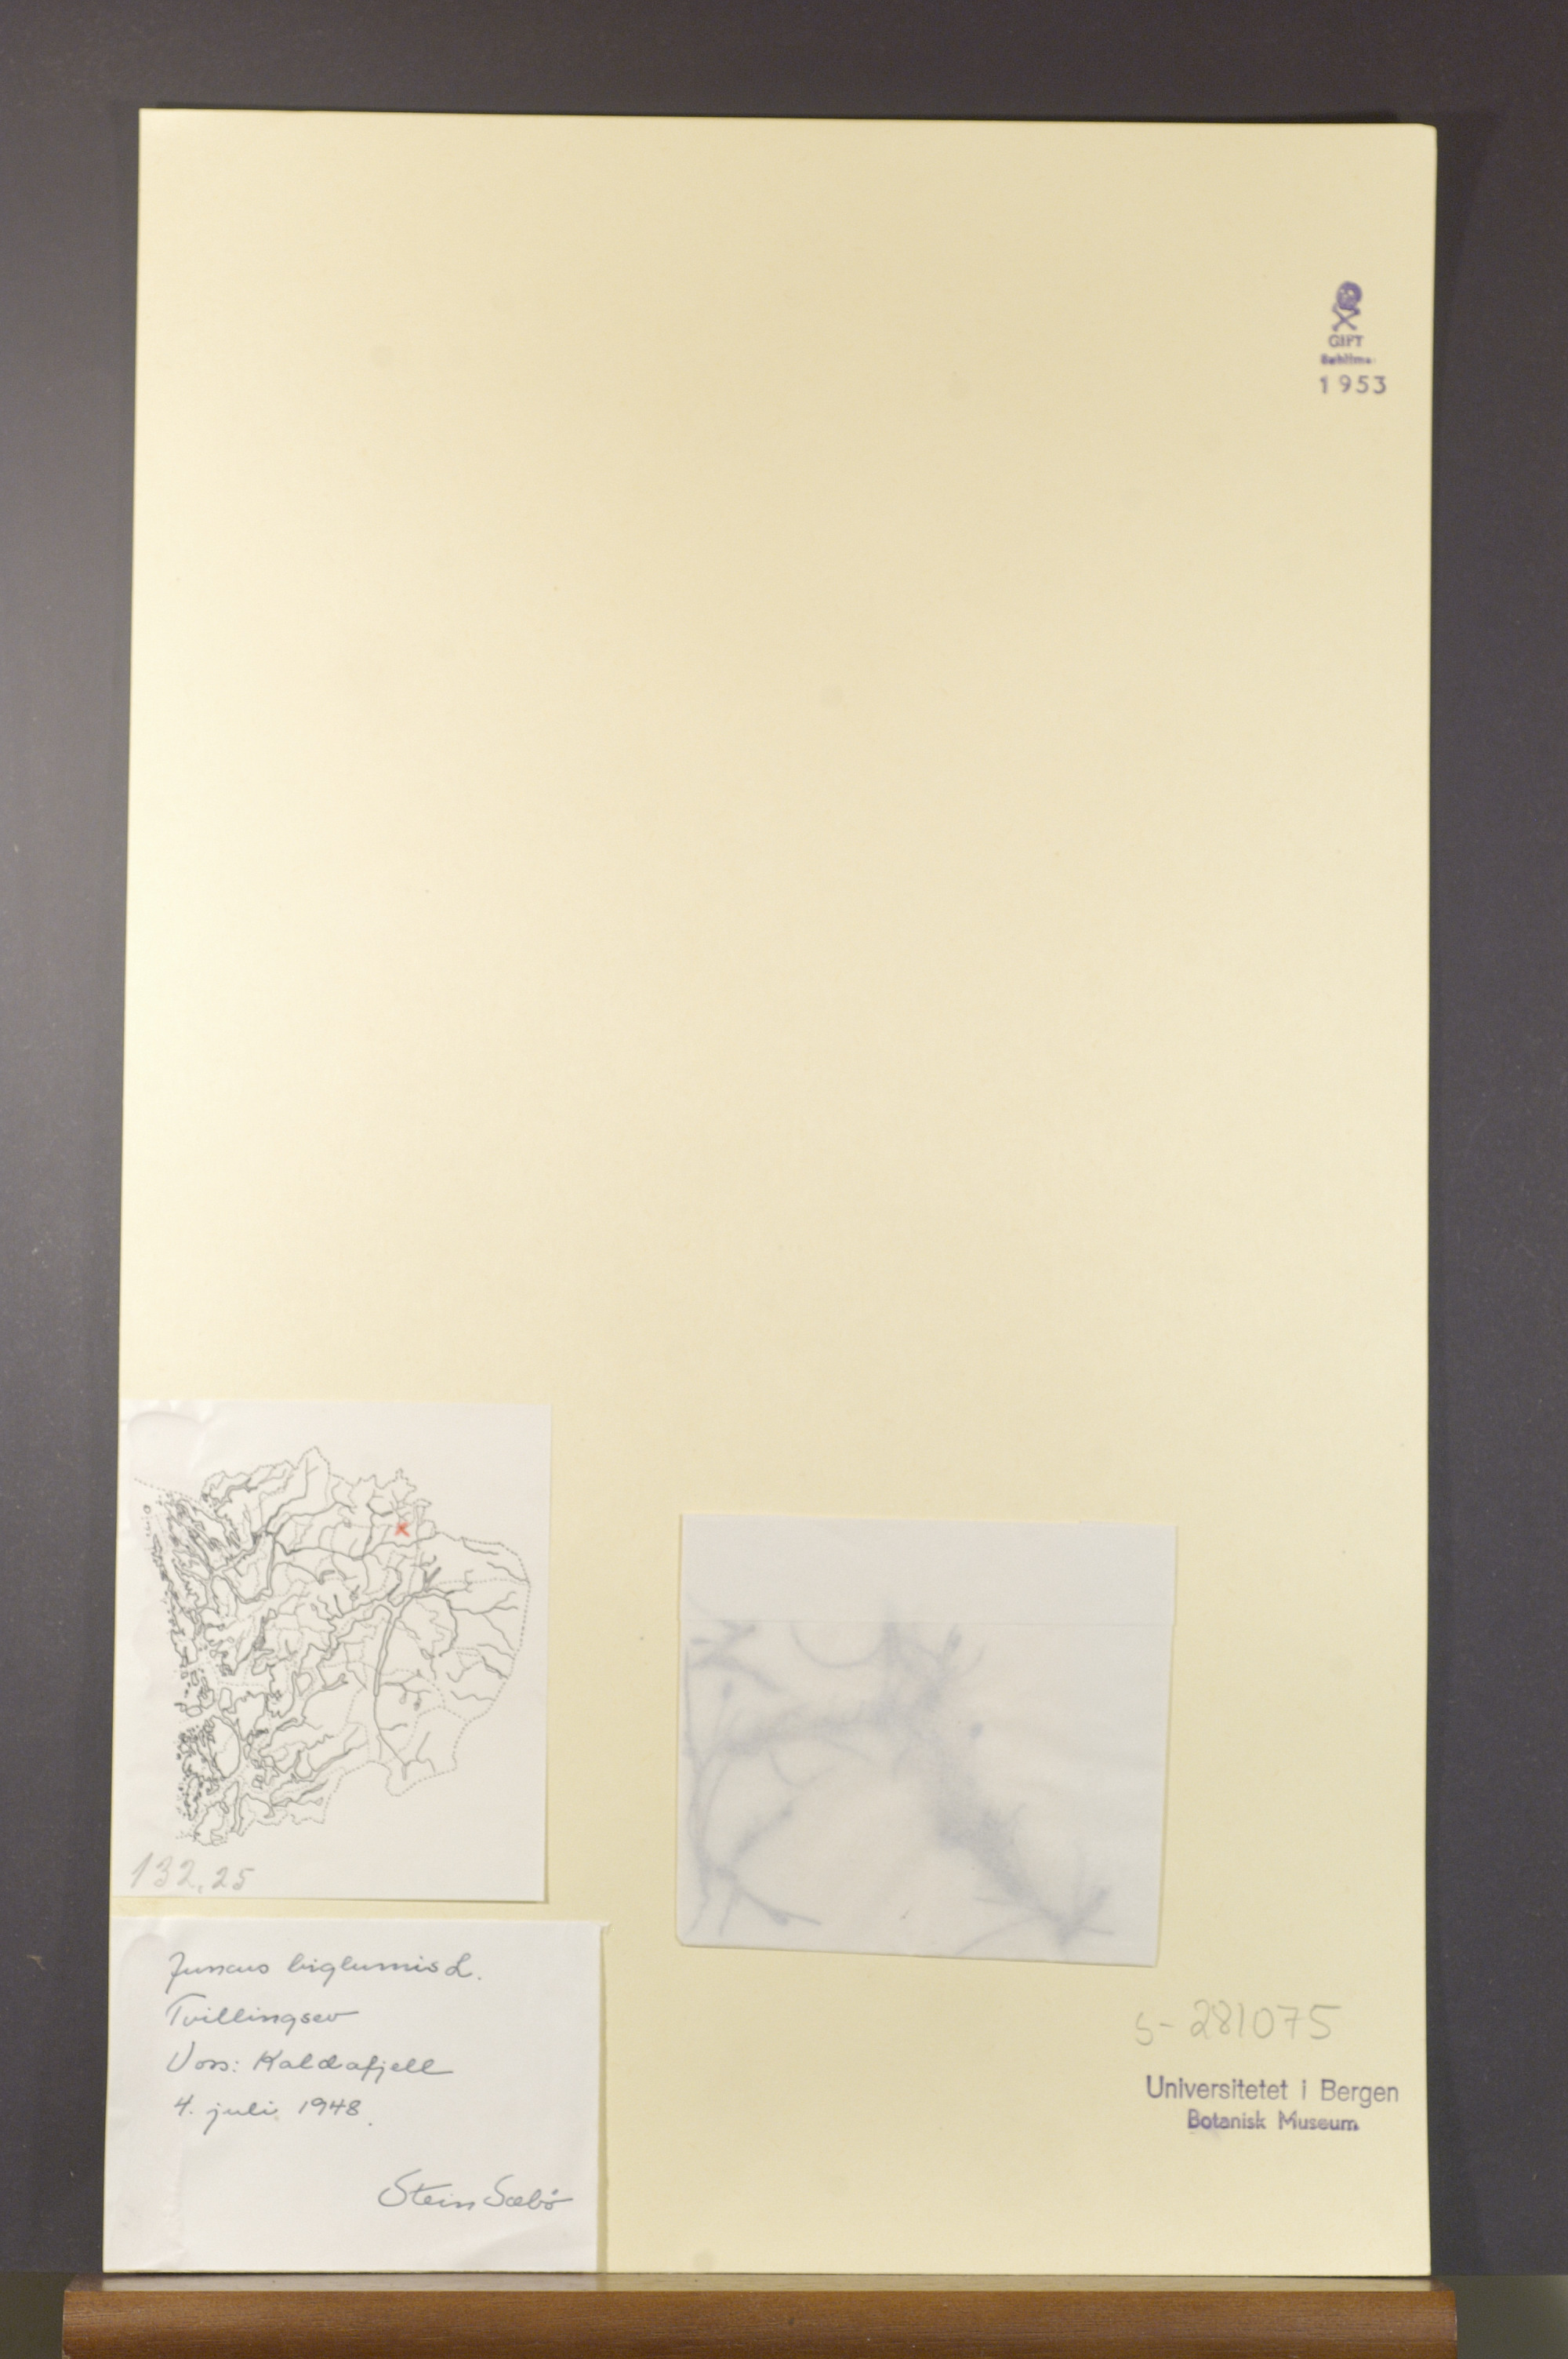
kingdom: Plantae
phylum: Tracheophyta
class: Liliopsida
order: Poales
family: Juncaceae
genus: Juncus
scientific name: Juncus biglumis
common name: Two-flowered rush
